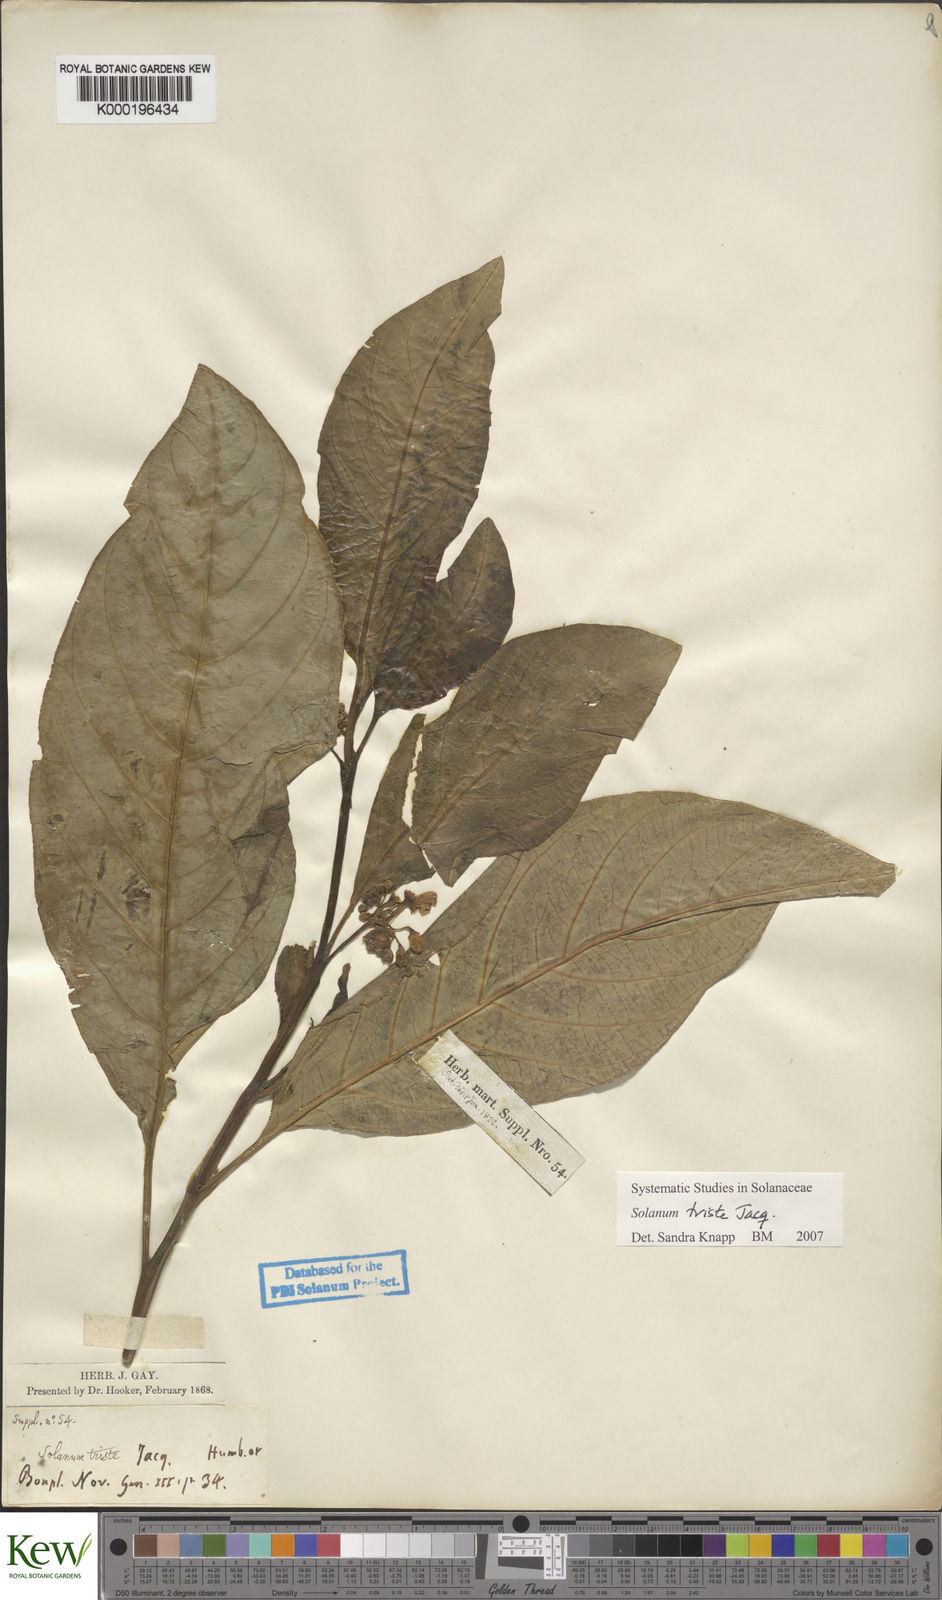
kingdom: Plantae
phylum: Tracheophyta
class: Magnoliopsida
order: Solanales
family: Solanaceae
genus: Solanum
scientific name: Solanum triste
